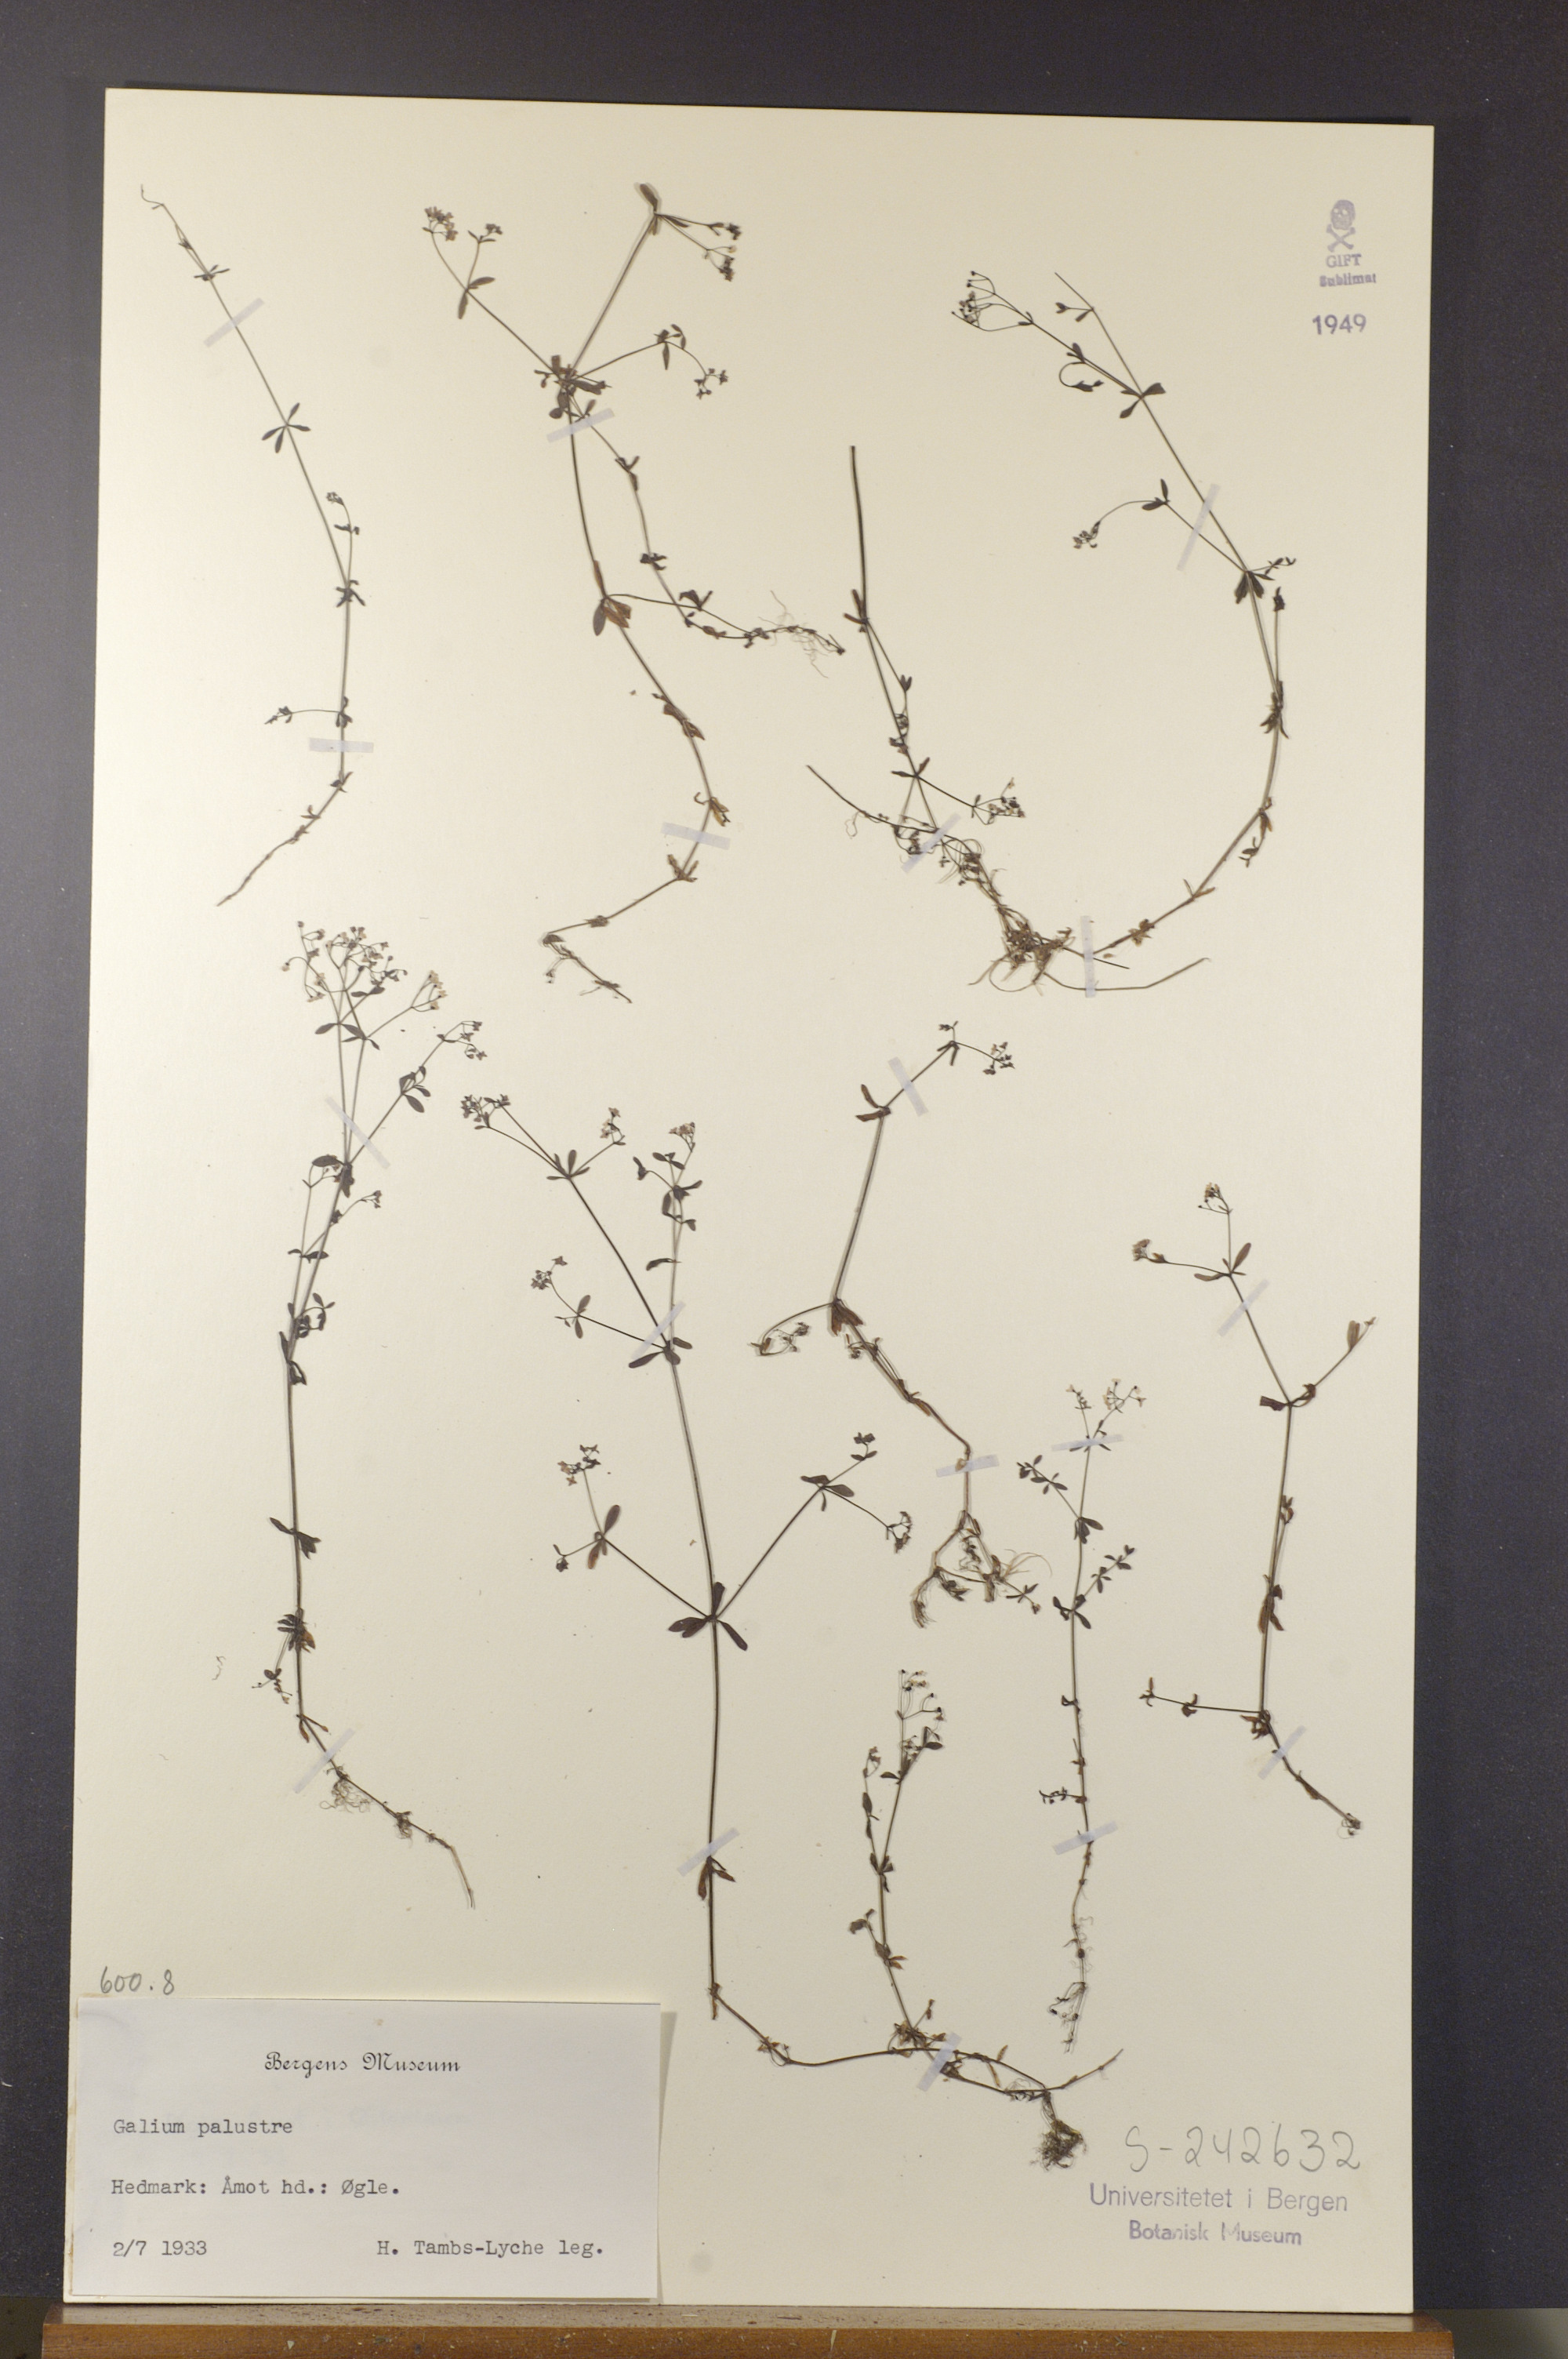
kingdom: Plantae
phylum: Tracheophyta
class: Magnoliopsida
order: Gentianales
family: Rubiaceae
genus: Galium
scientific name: Galium palustre
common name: Common marsh-bedstraw
